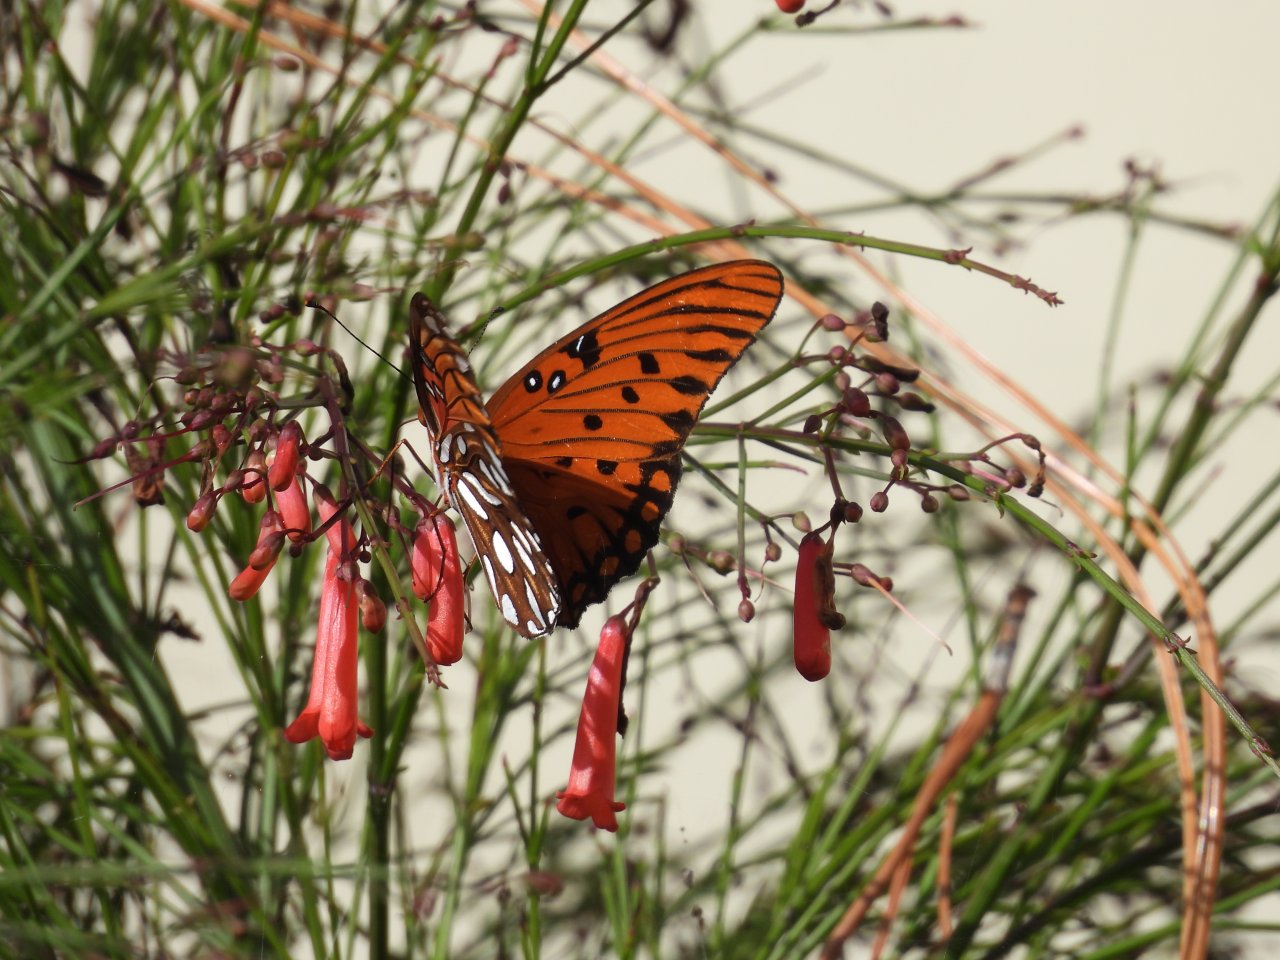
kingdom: Animalia
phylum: Arthropoda
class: Insecta
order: Lepidoptera
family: Nymphalidae
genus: Dione
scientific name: Dione vanillae
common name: Gulf Fritillary
